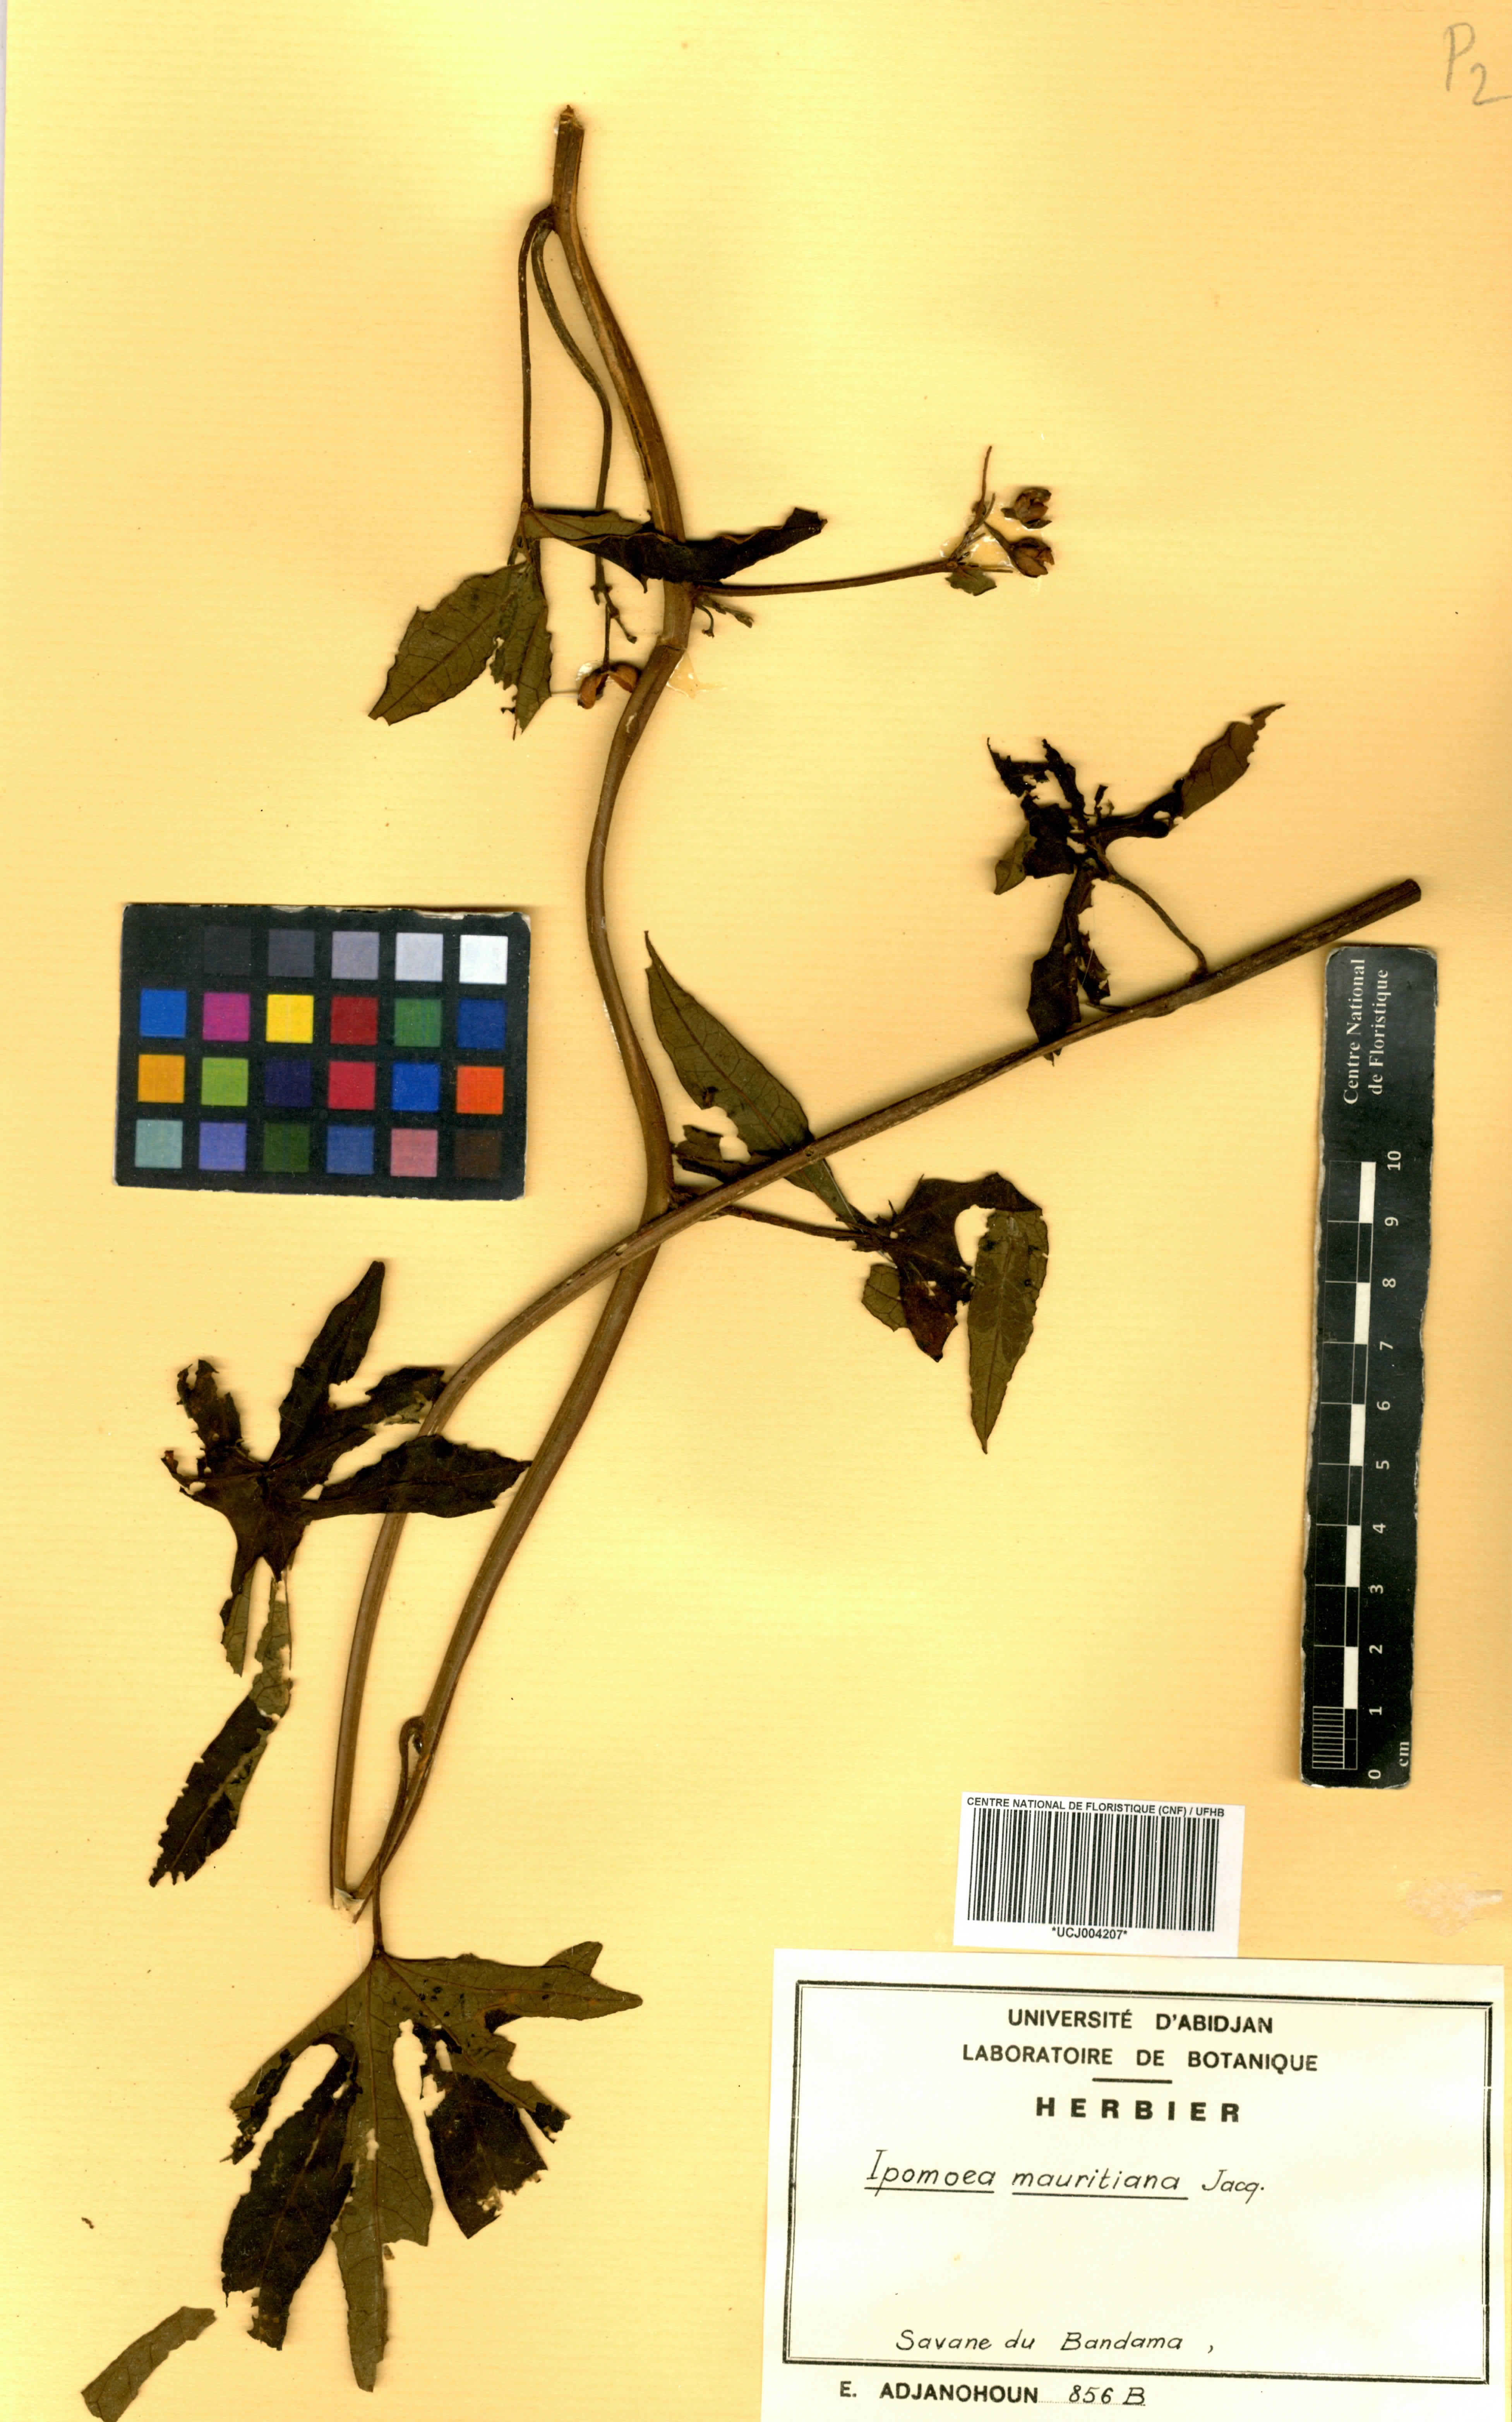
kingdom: Plantae
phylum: Tracheophyta
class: Magnoliopsida
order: Solanales
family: Convolvulaceae
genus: Ipomoea
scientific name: Ipomoea mauritiana
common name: Mauritanian convolvulus
